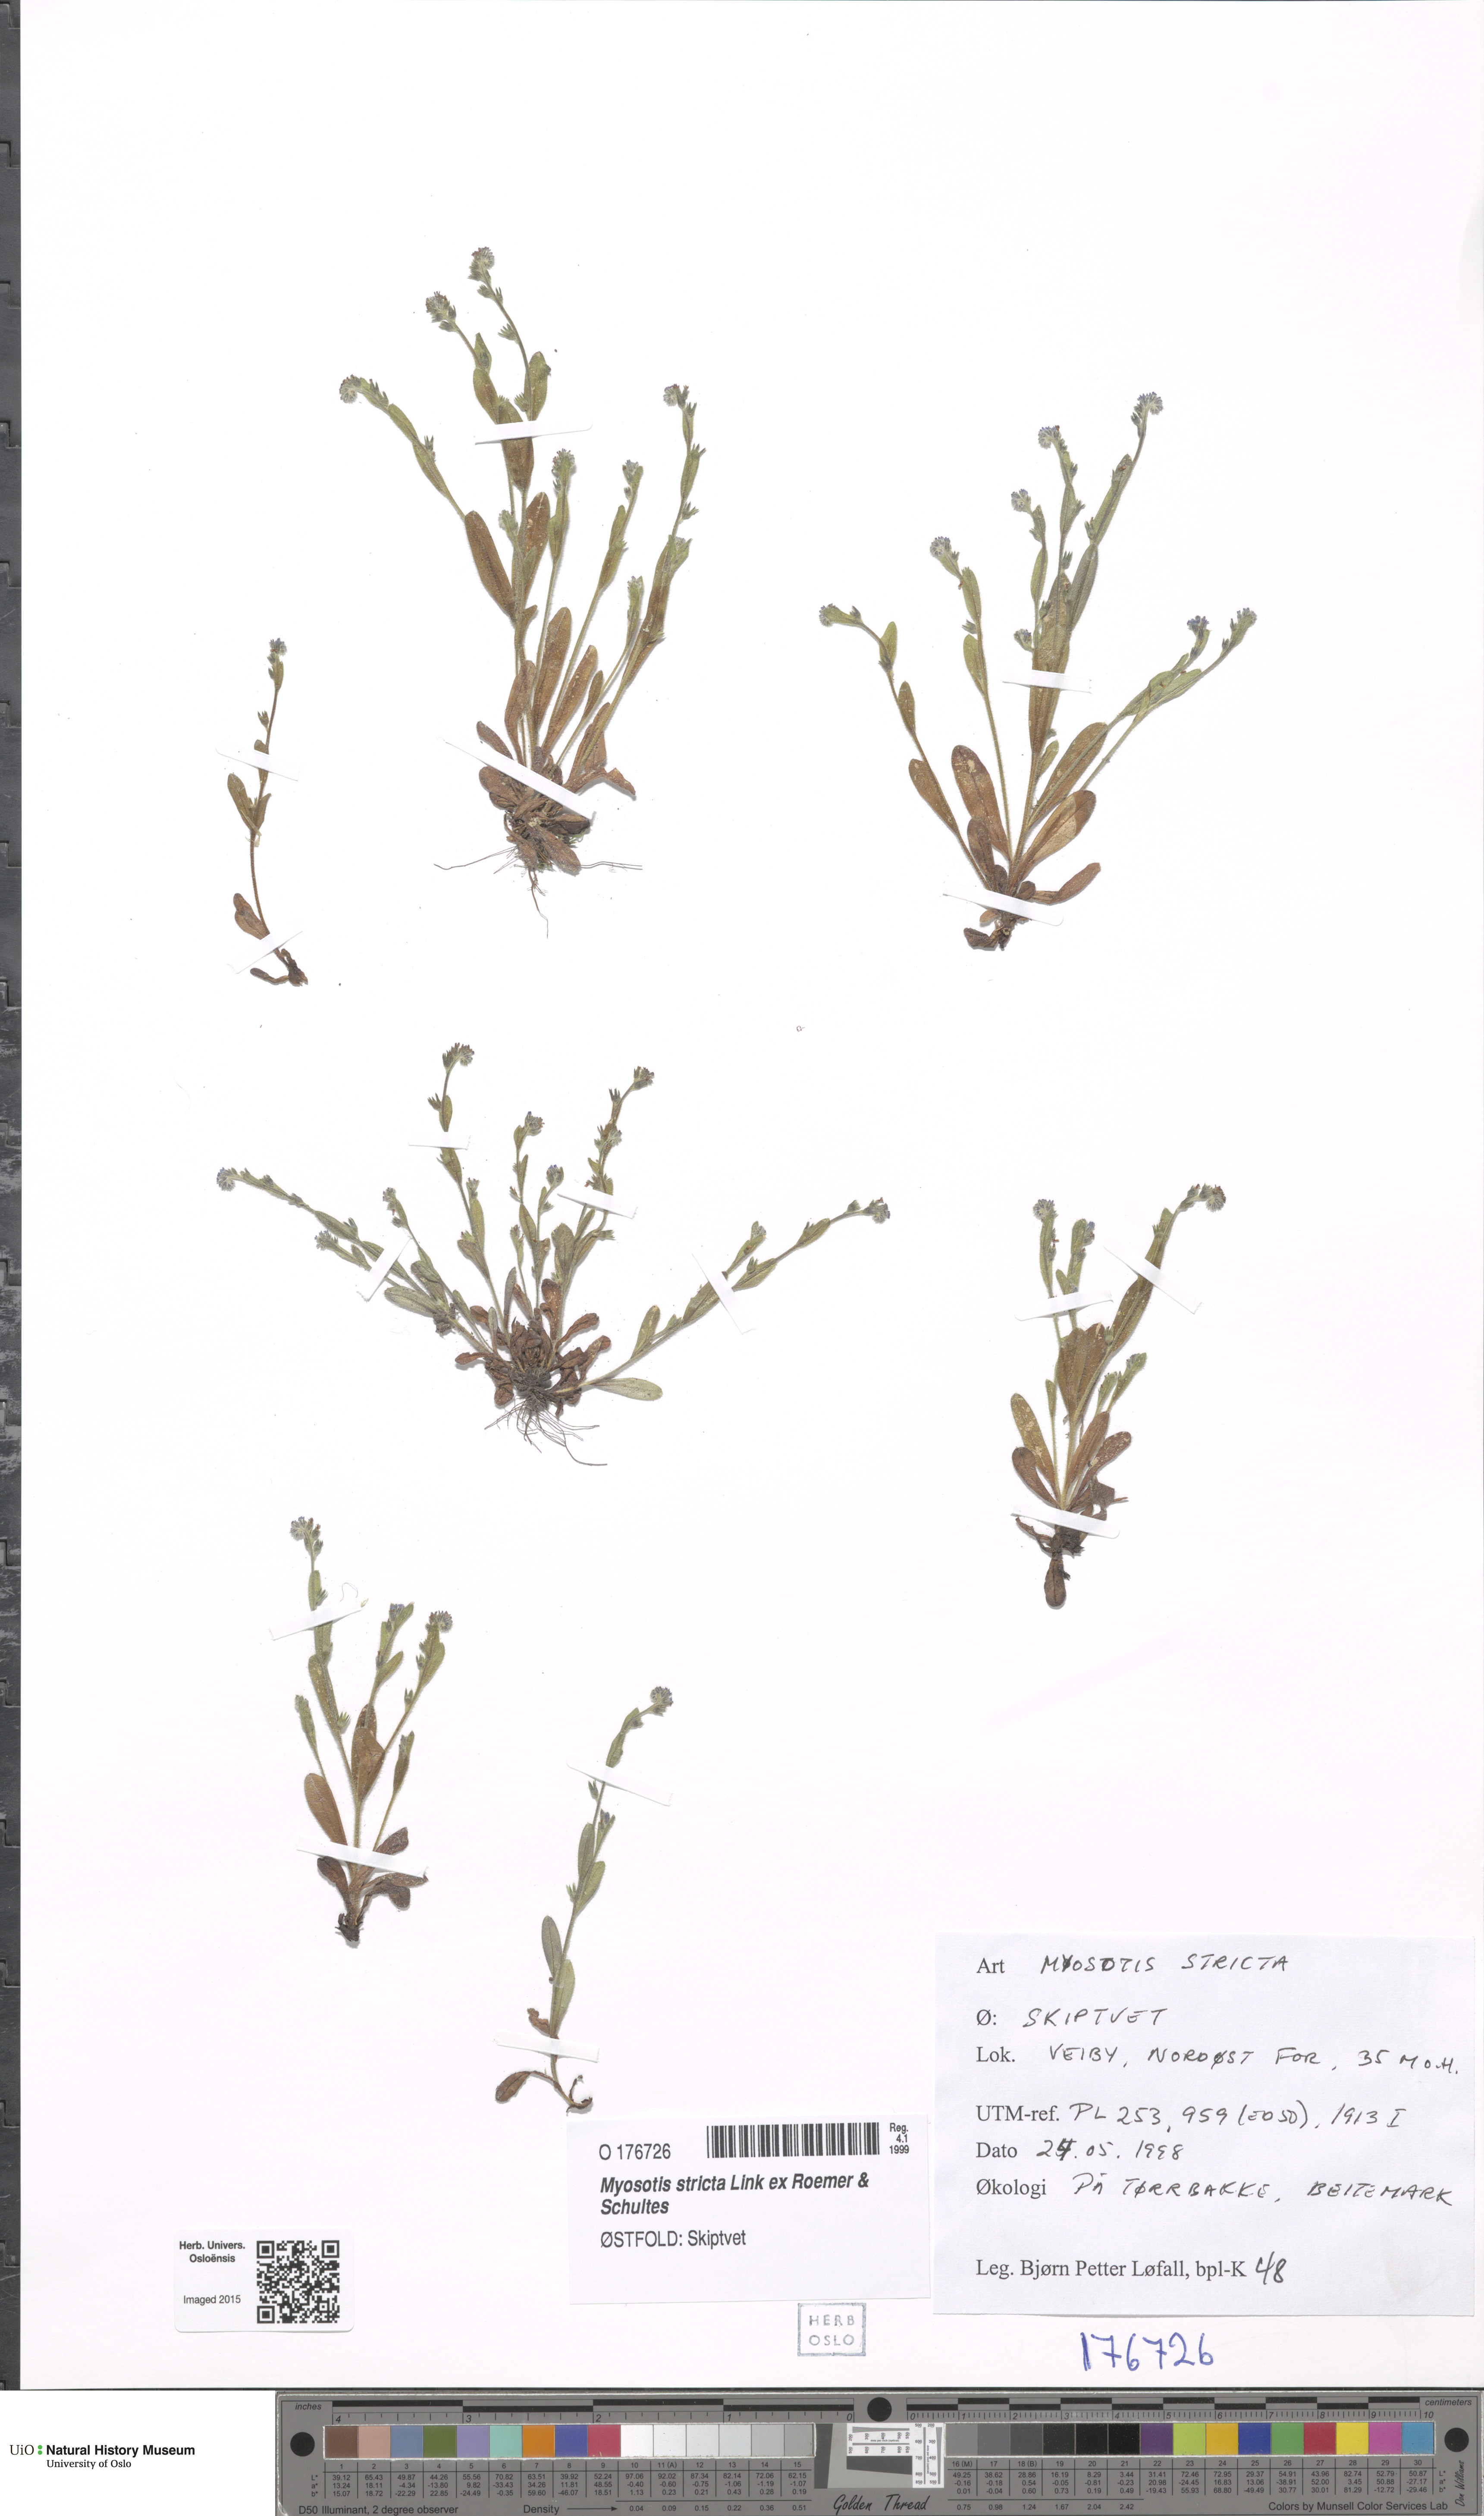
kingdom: Plantae
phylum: Tracheophyta
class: Magnoliopsida
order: Boraginales
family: Boraginaceae
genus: Myosotis
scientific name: Myosotis stricta
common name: Strict forget-me-not
